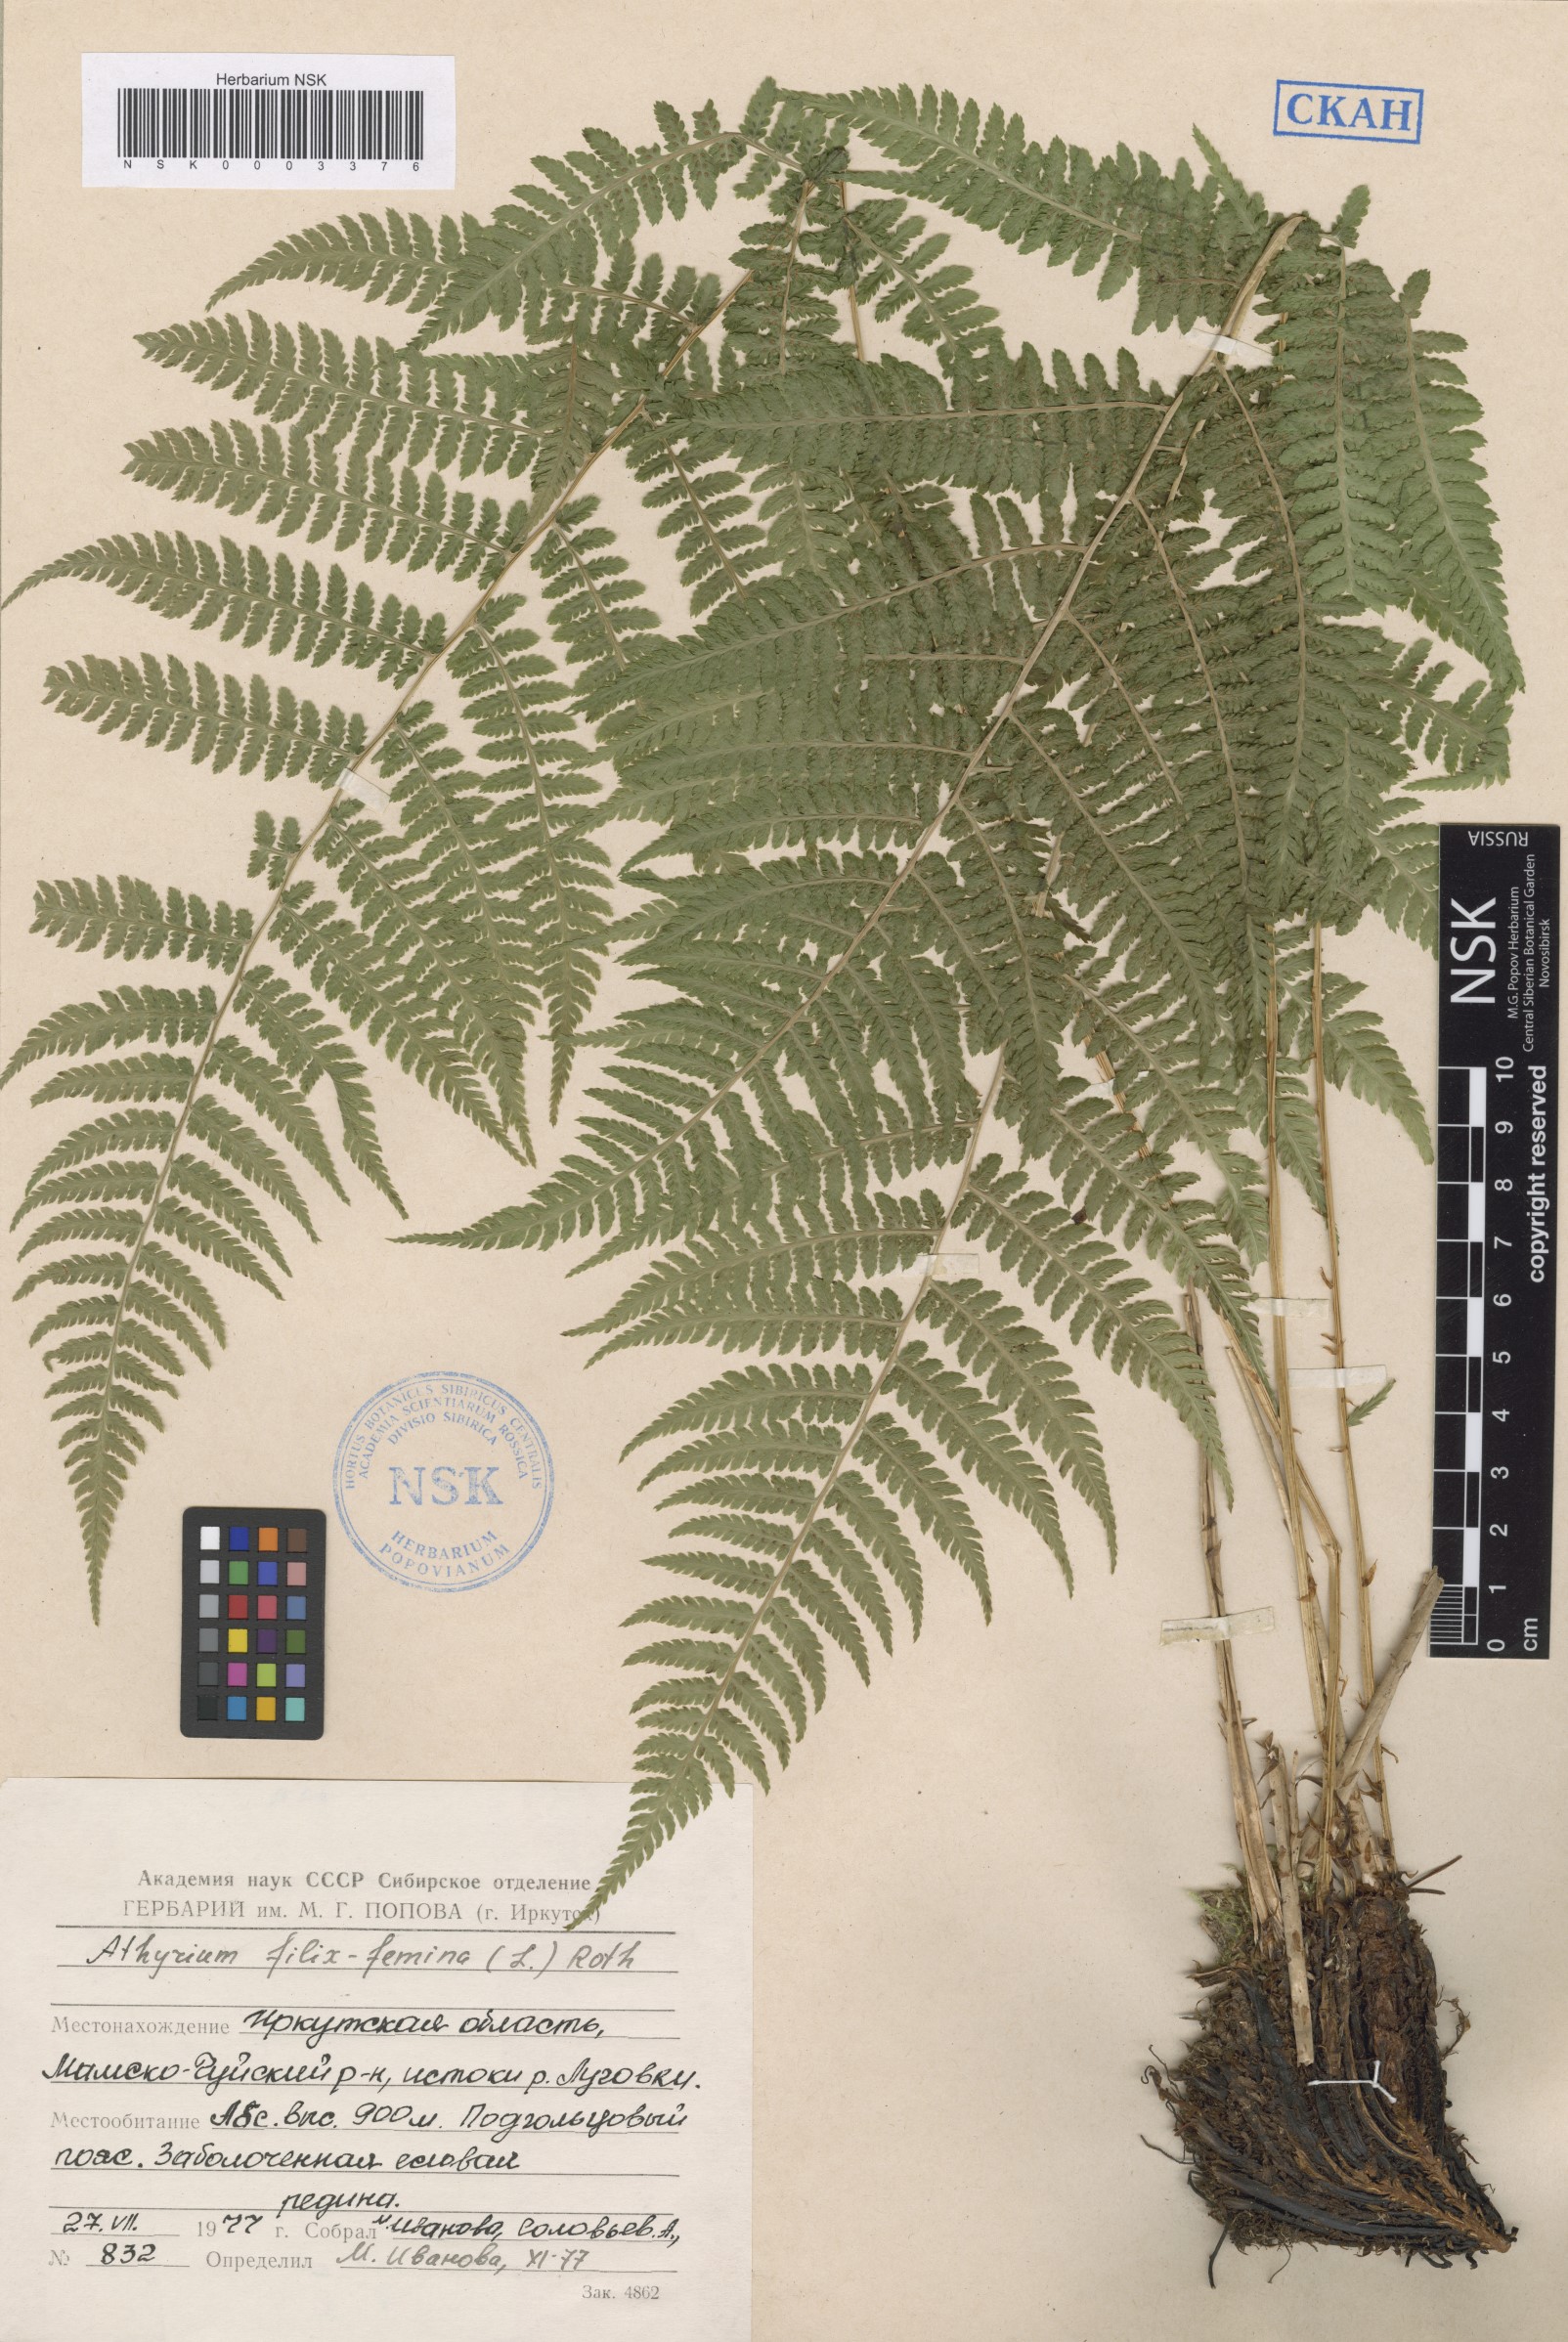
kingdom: Plantae
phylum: Tracheophyta
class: Polypodiopsida
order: Polypodiales
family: Athyriaceae
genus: Athyrium
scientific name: Athyrium filix-femina
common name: Lady fern
